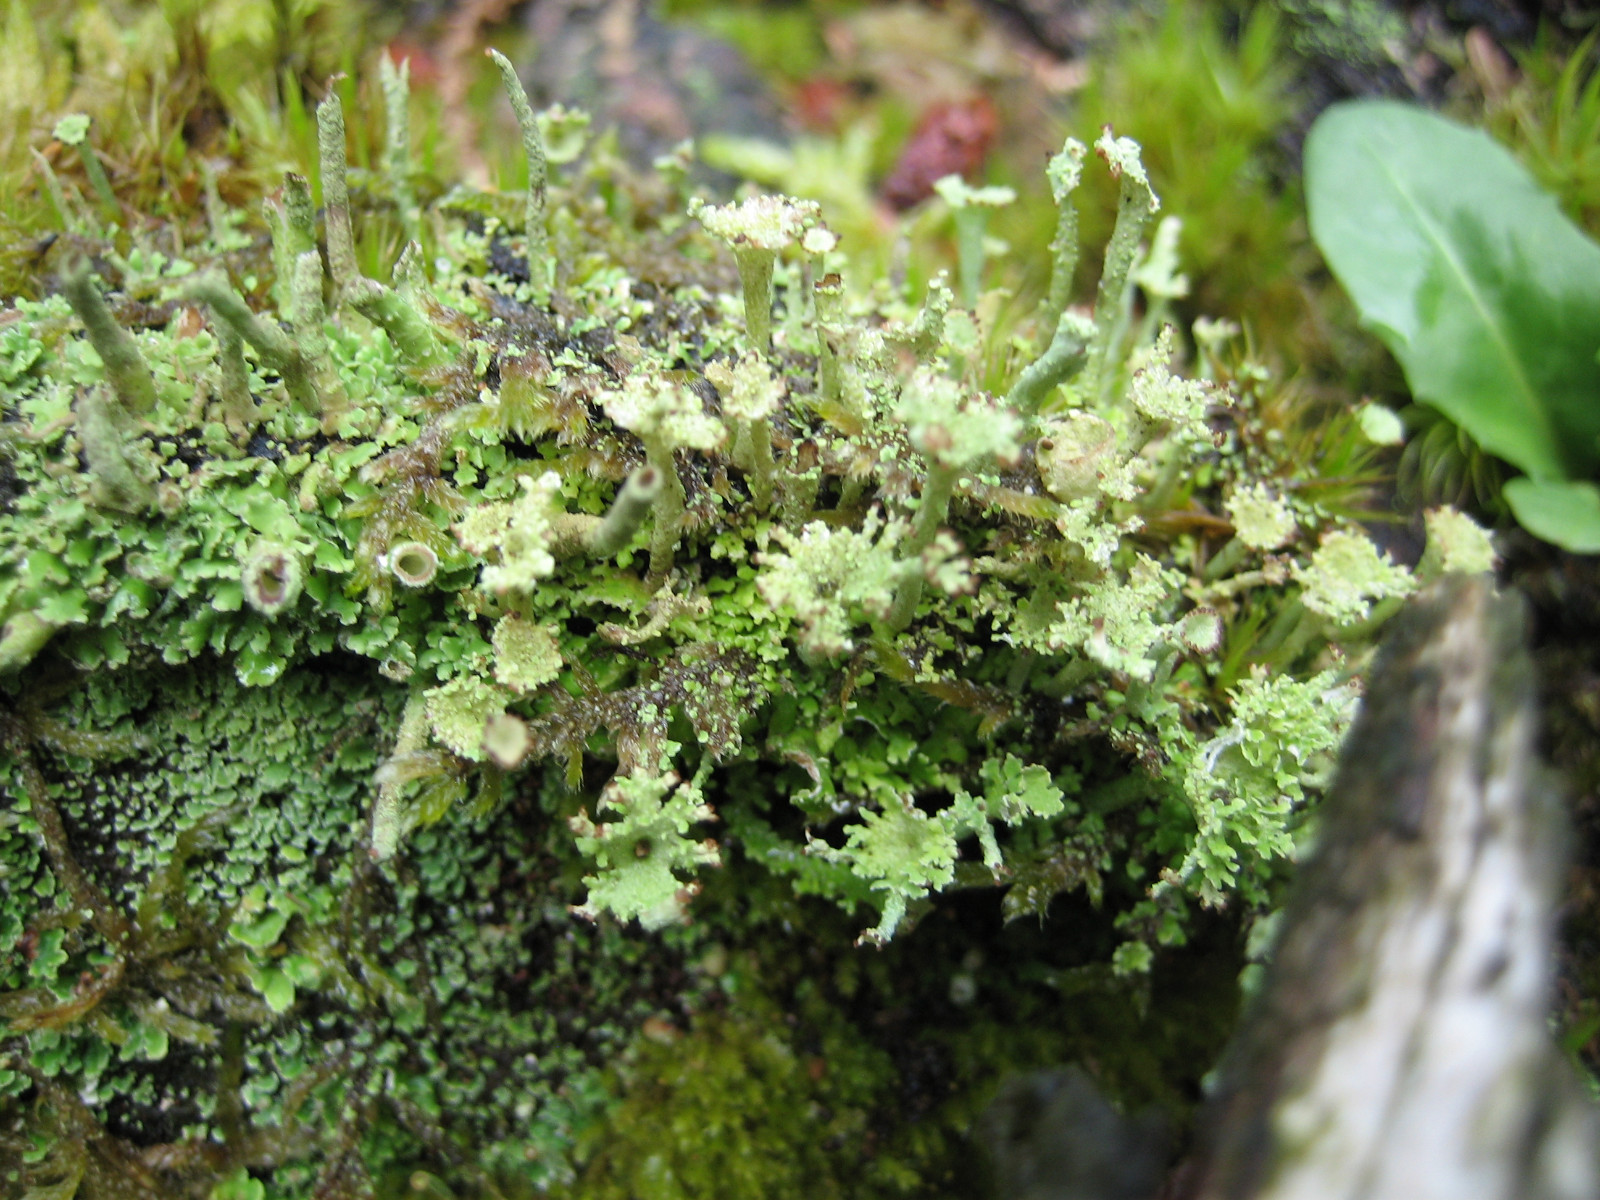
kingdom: Fungi
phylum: Ascomycota
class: Lecanoromycetes
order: Lecanorales
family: Cladoniaceae
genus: Cladonia
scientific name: Cladonia ramulosa
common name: kliddet bægerlav
